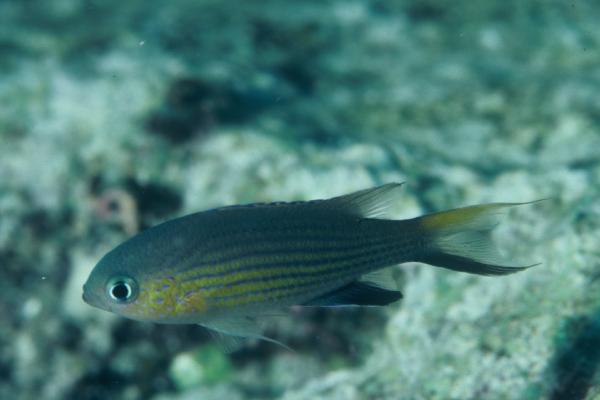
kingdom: Animalia
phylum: Chordata
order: Perciformes
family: Pomacentridae
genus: Chromis
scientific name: Chromis vanderbilti
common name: Vanderbilt's chromis
